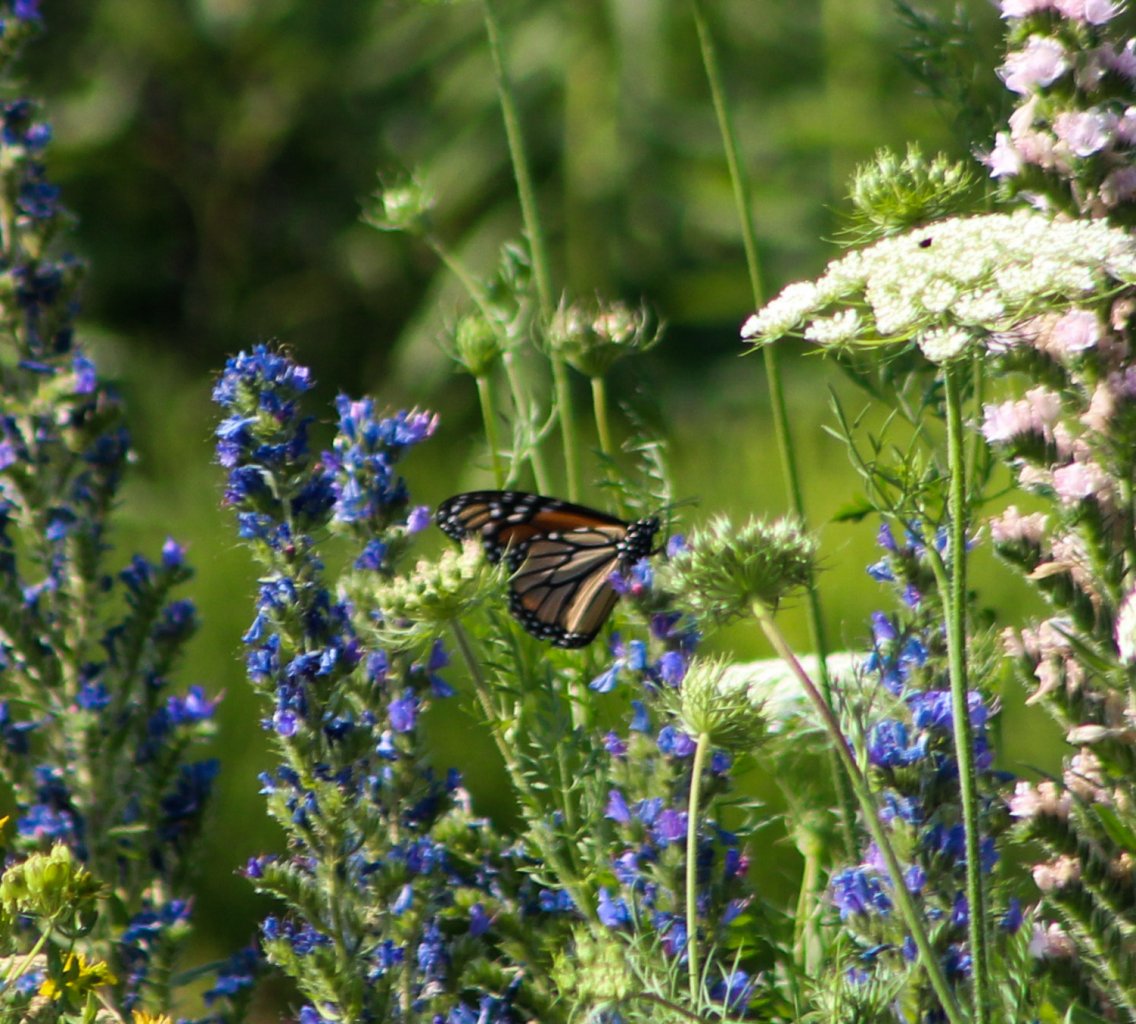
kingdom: Animalia
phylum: Arthropoda
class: Insecta
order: Lepidoptera
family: Nymphalidae
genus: Danaus
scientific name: Danaus plexippus
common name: Monarch
